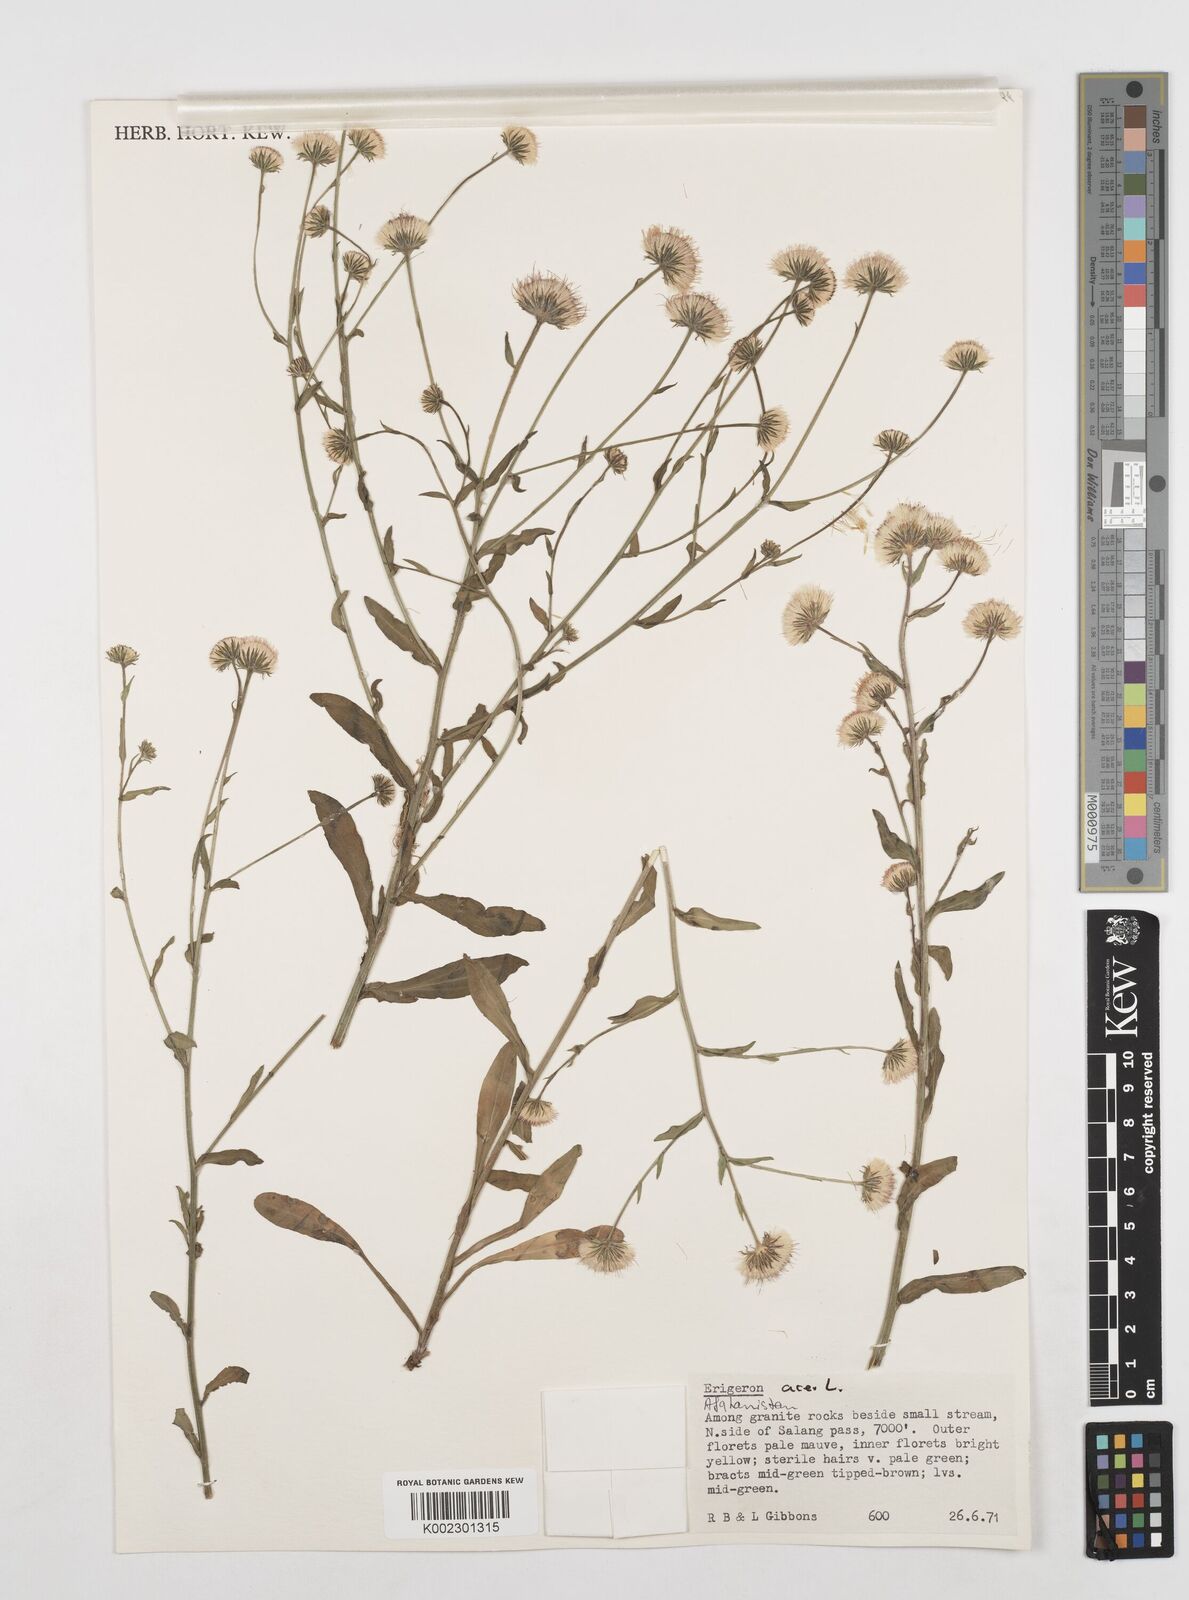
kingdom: Plantae
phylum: Tracheophyta
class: Magnoliopsida
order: Asterales
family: Asteraceae
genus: Erigeron
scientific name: Erigeron acris
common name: Blue fleabane
